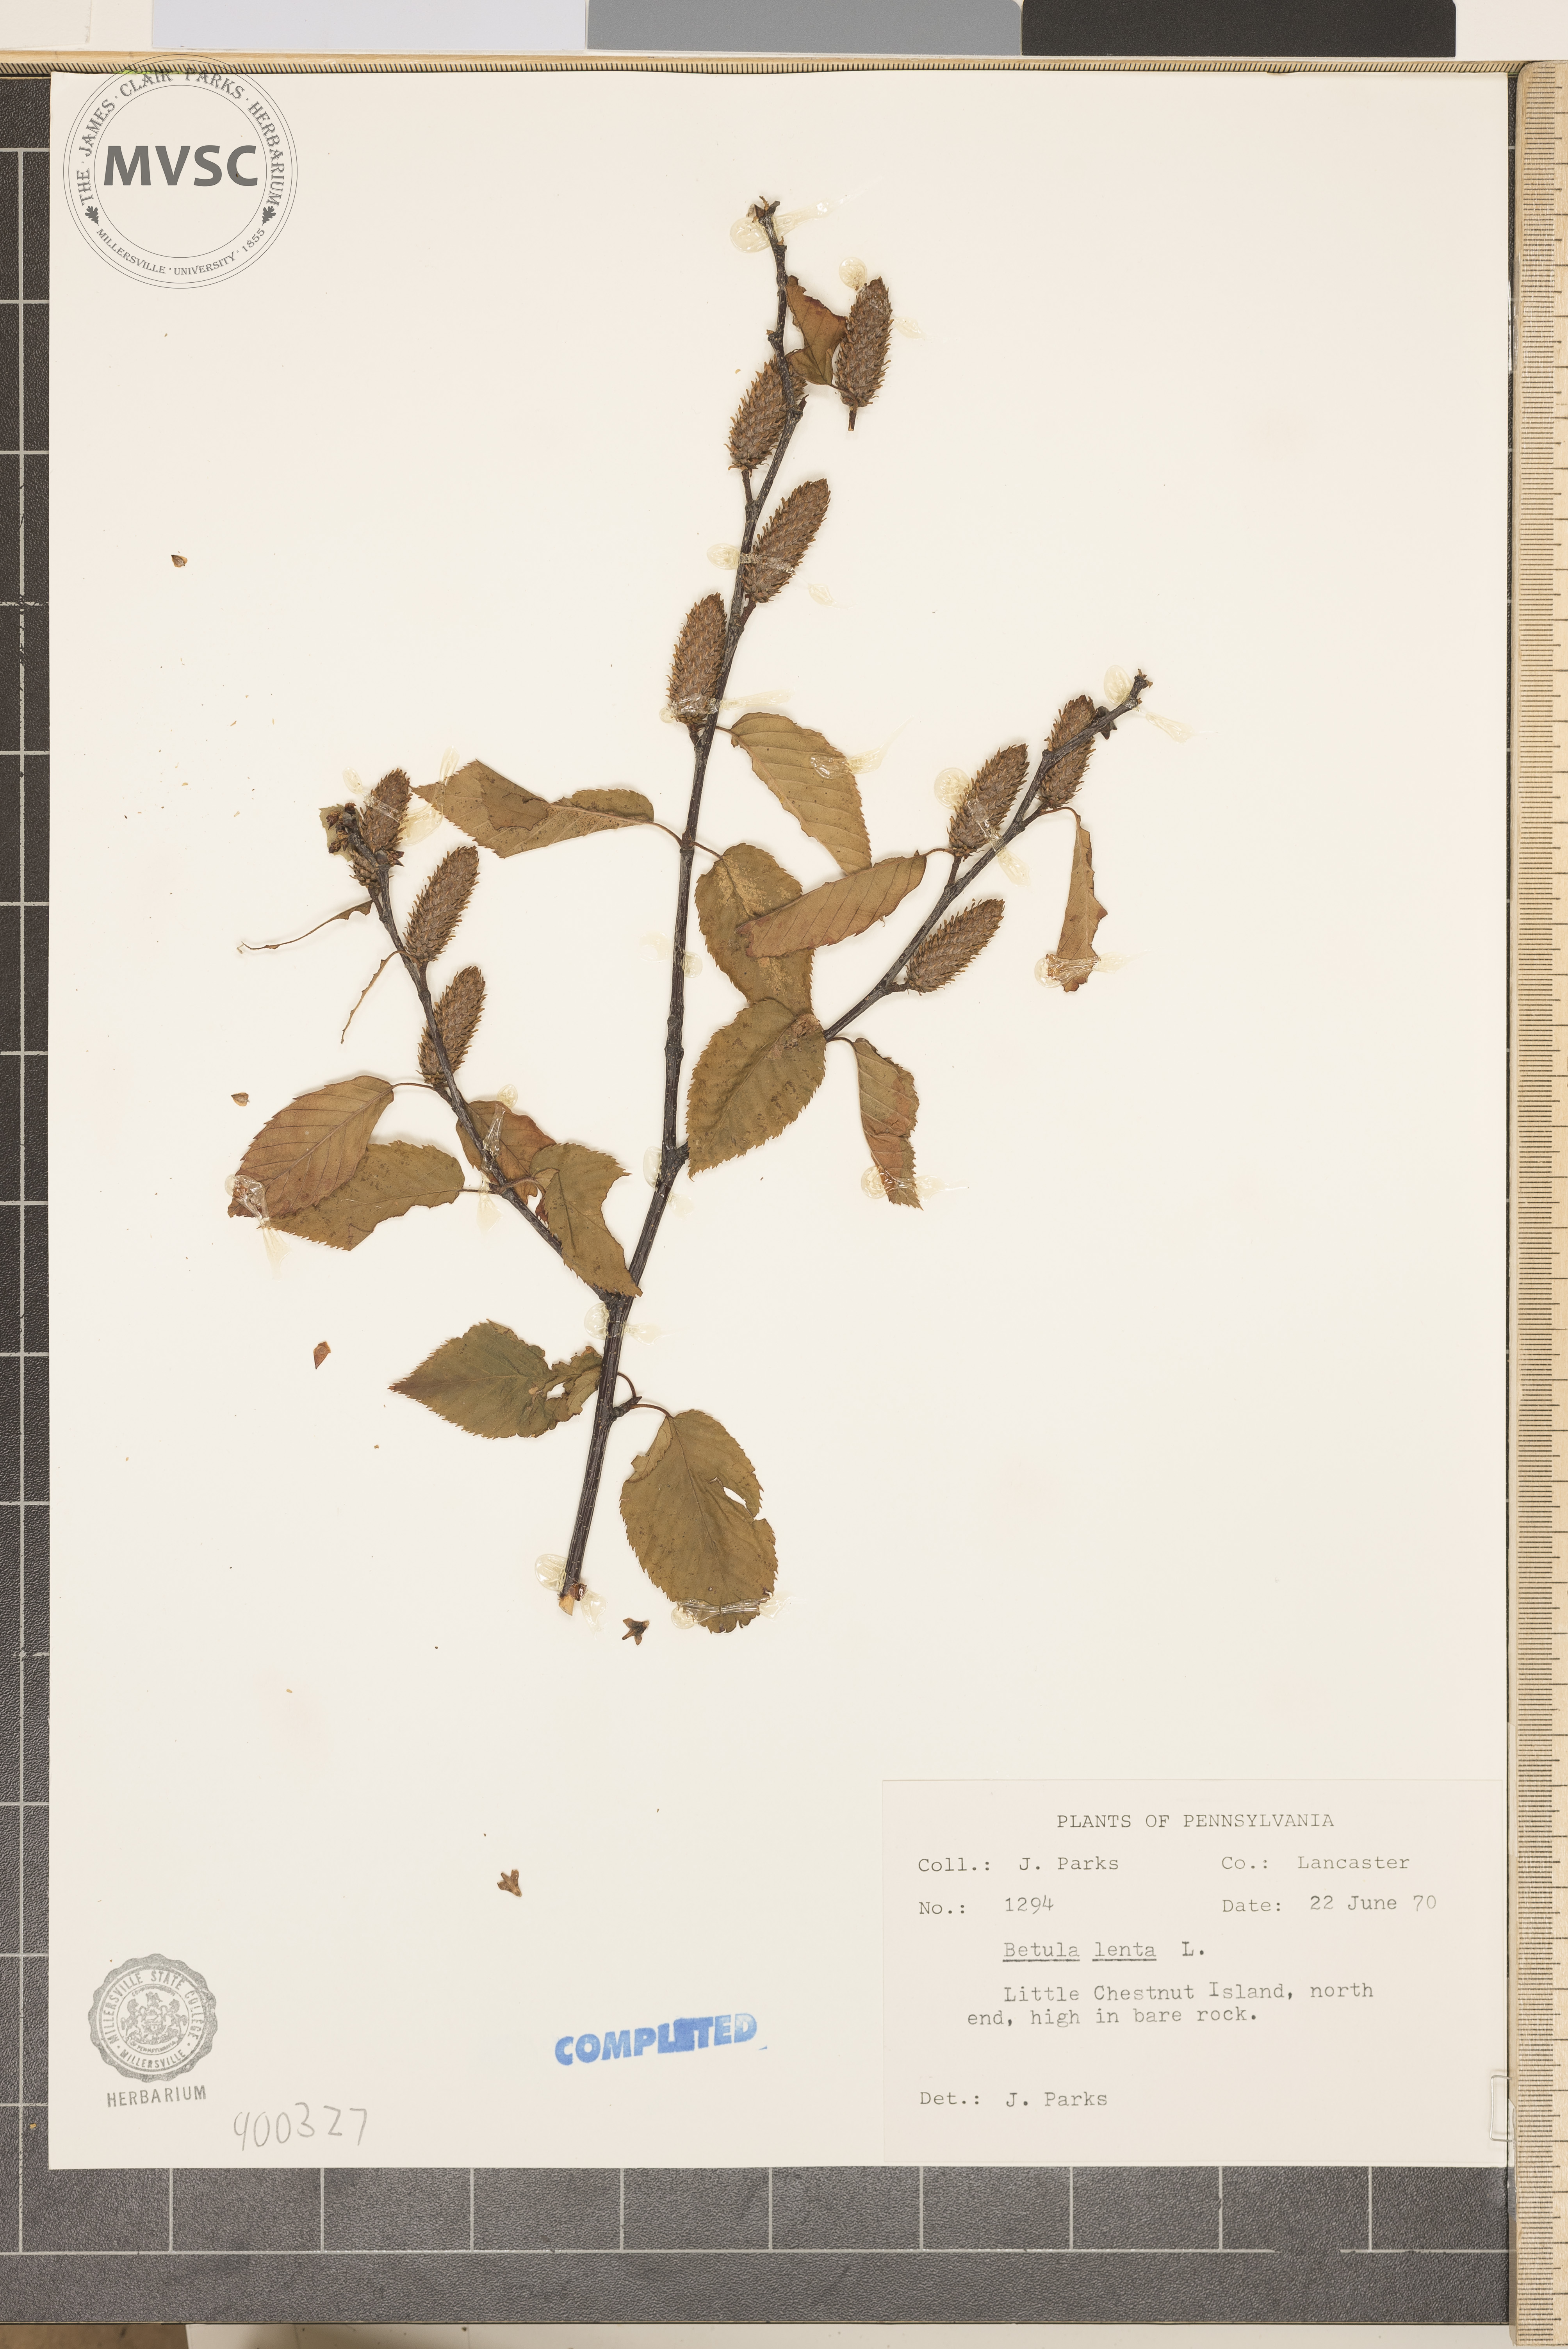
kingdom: Plantae
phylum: Tracheophyta
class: Magnoliopsida
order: Fagales
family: Betulaceae
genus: Betula
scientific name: Betula lenta
